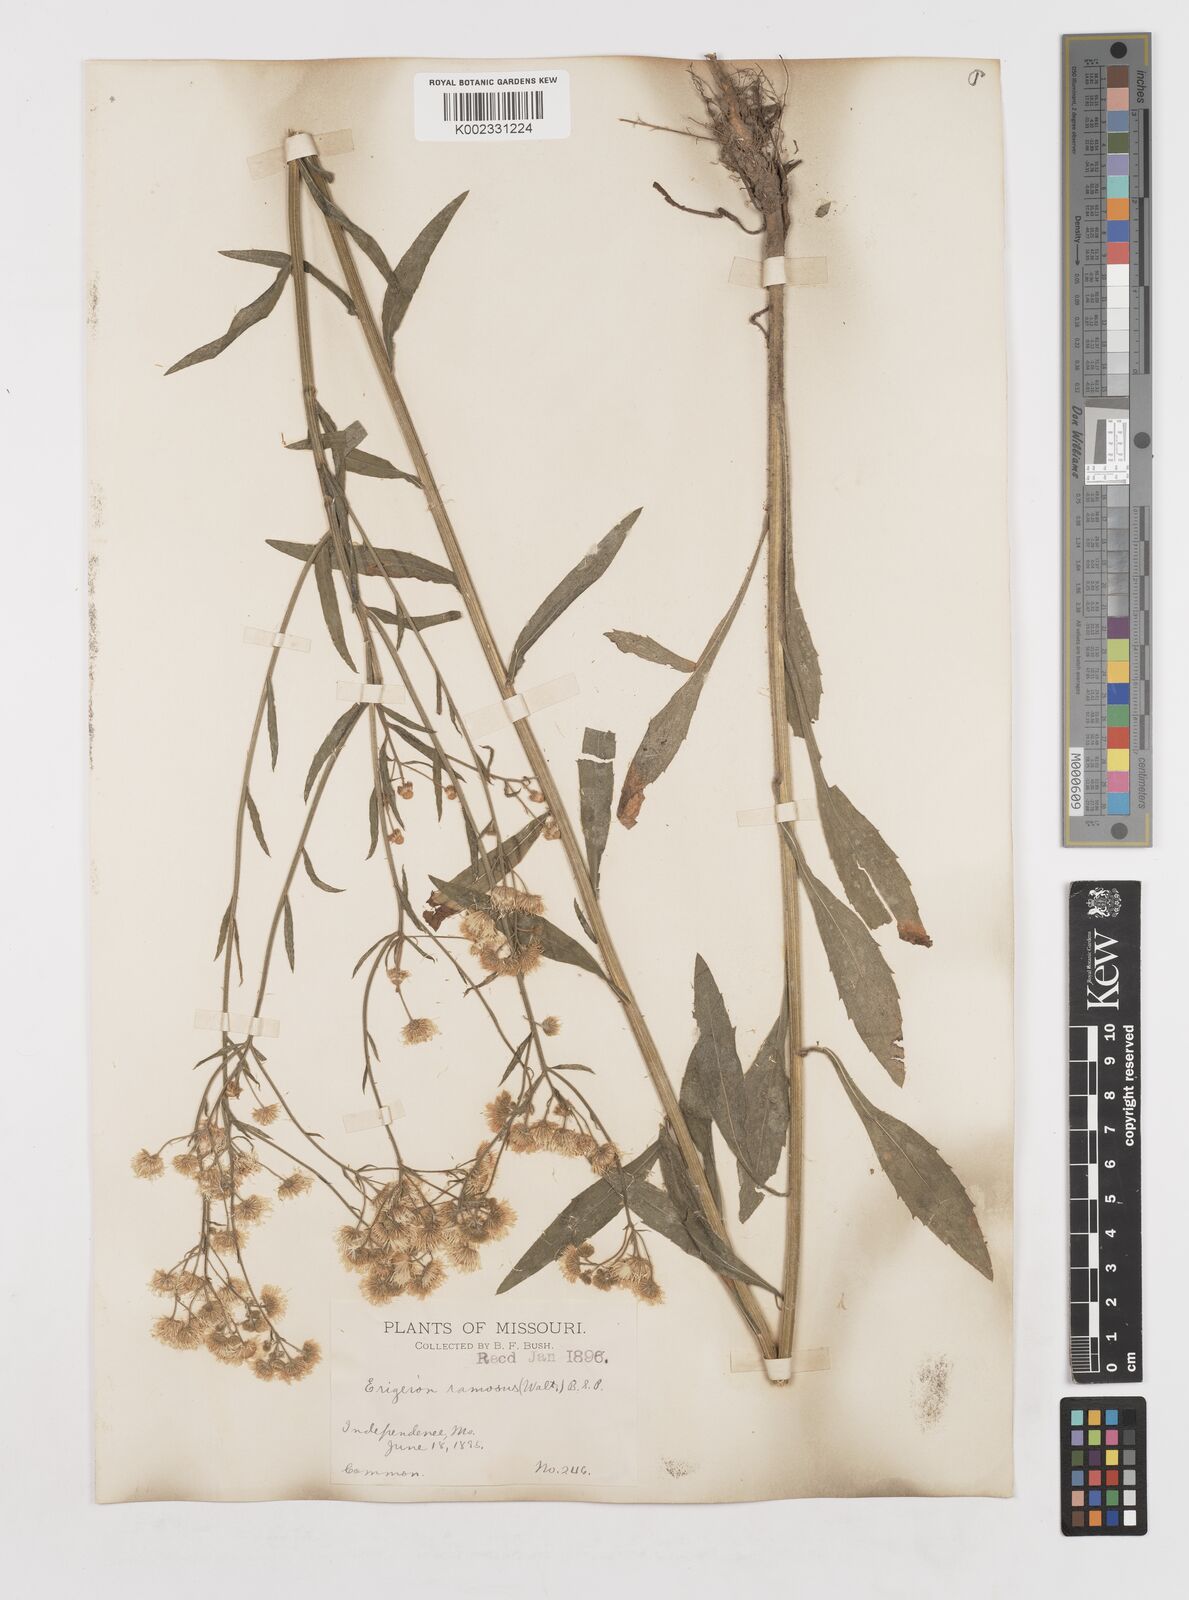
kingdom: Plantae
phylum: Tracheophyta
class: Magnoliopsida
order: Asterales
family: Asteraceae
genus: Erigeron
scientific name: Erigeron strigosus
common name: Common eastern fleabane
